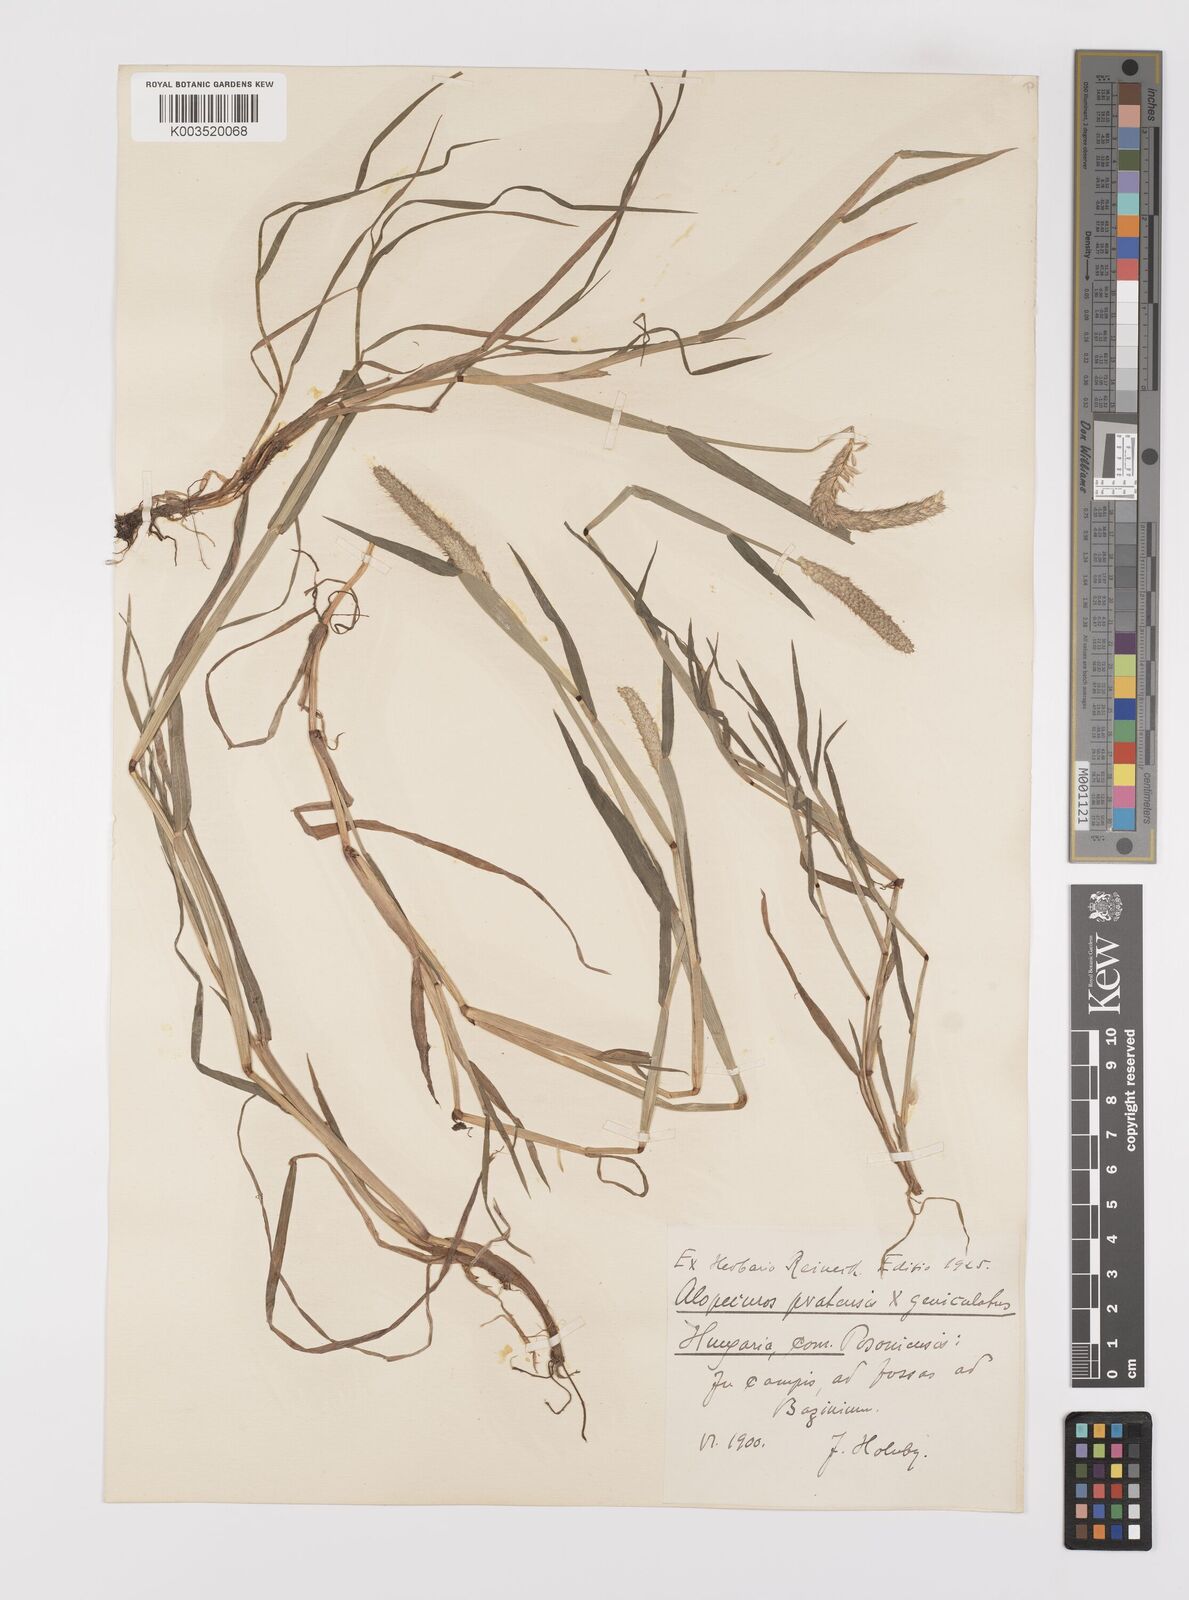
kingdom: Plantae
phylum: Tracheophyta
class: Liliopsida
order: Poales
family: Poaceae
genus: Alopecurus
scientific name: Alopecurus brachystylus
